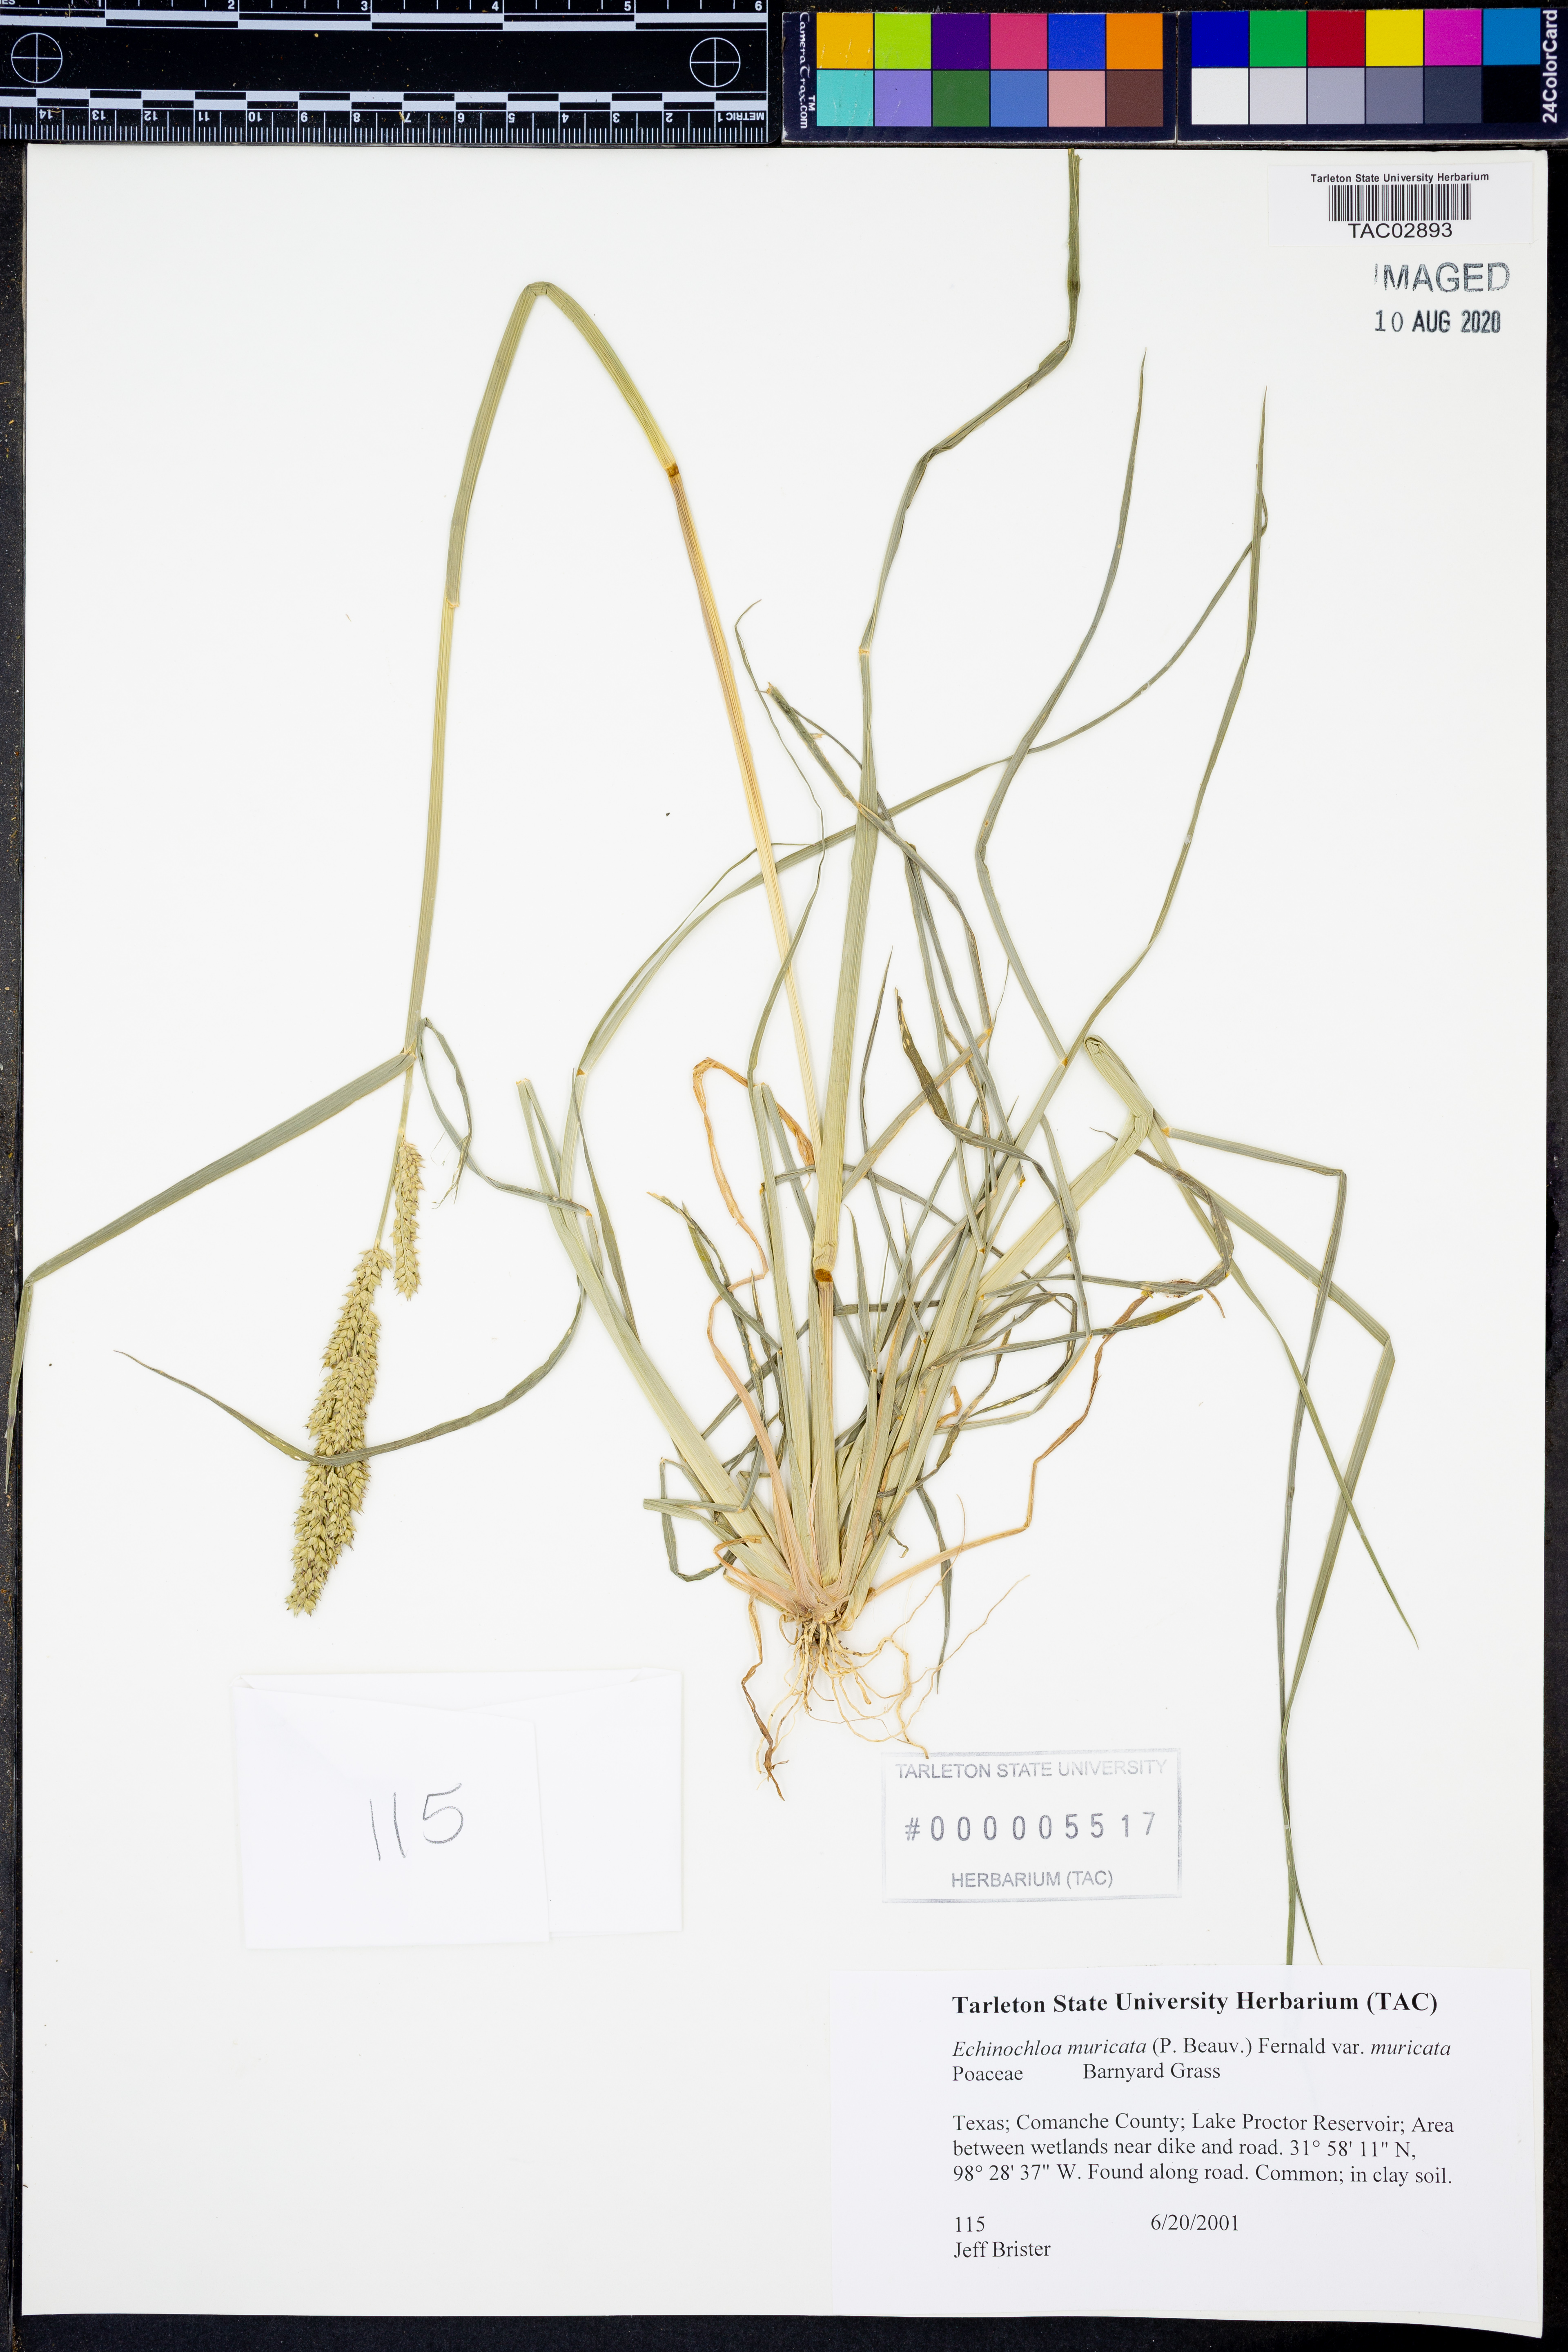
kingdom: Plantae
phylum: Tracheophyta
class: Liliopsida
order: Poales
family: Poaceae
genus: Echinochloa
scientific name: Echinochloa muricata
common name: American barnyard grass
